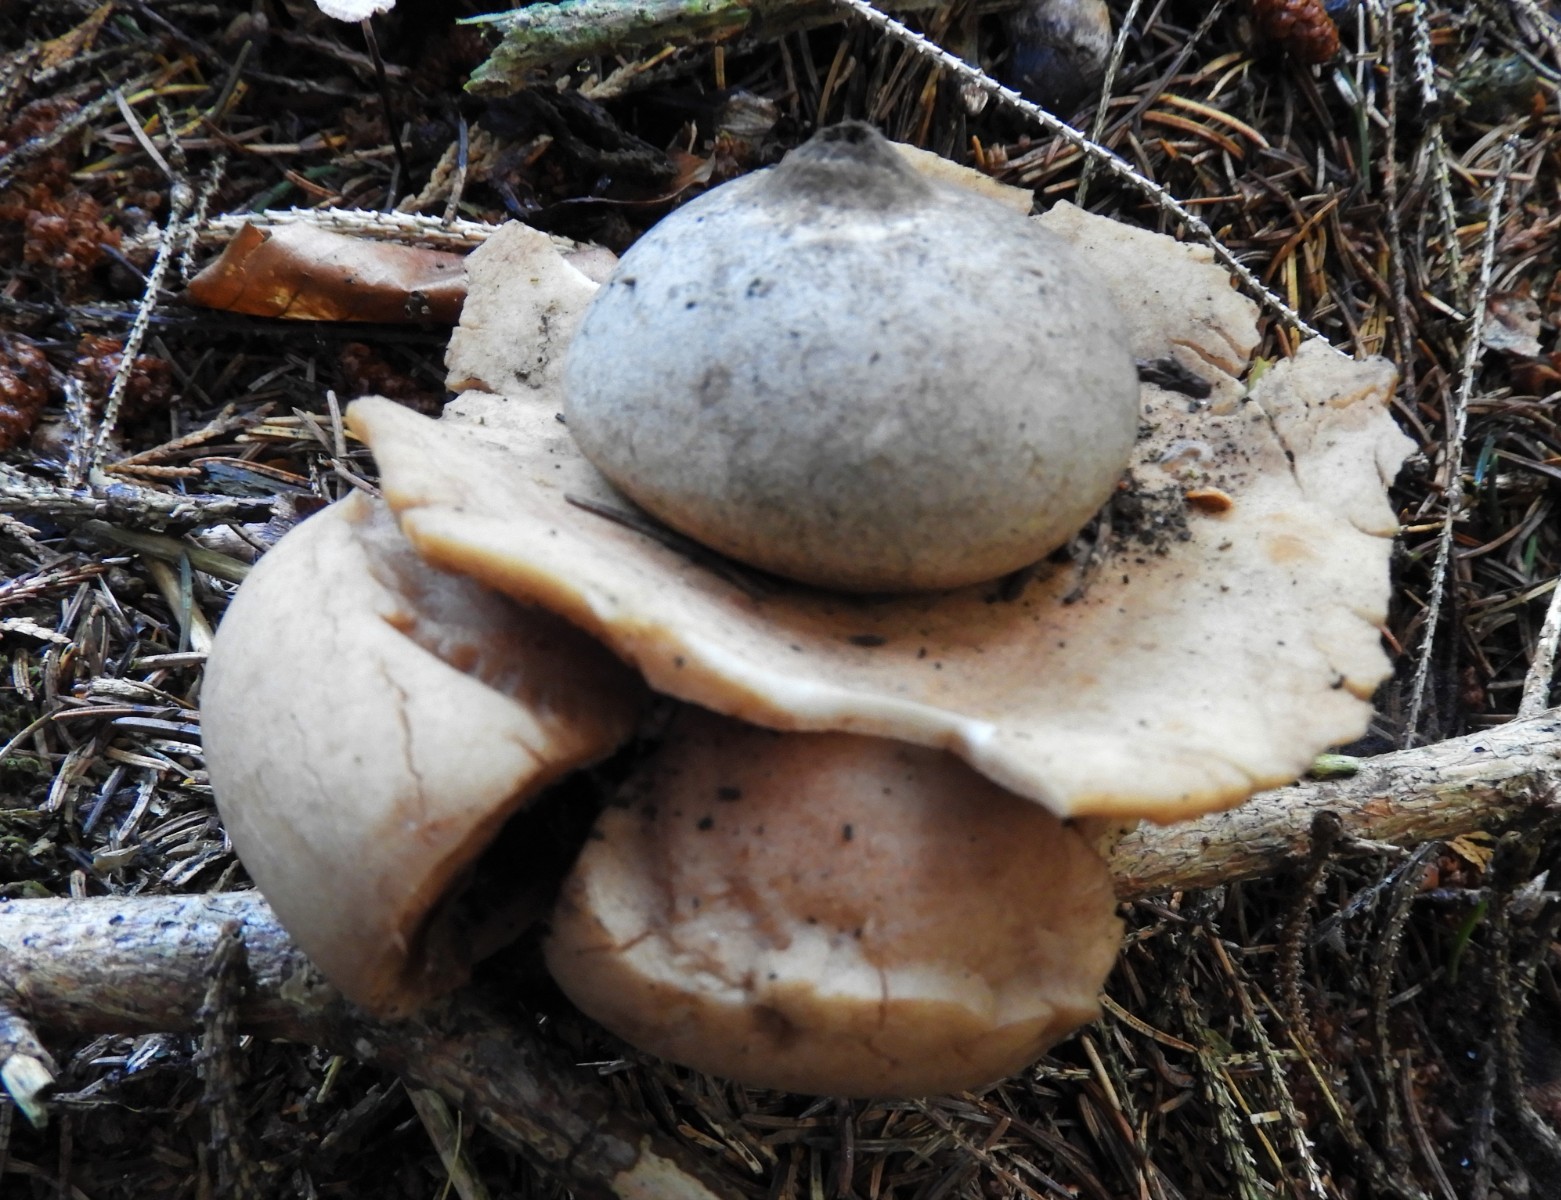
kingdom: Fungi
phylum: Basidiomycota
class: Agaricomycetes
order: Geastrales
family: Geastraceae
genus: Geastrum
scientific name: Geastrum michelianum
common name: kødet stjernebold
